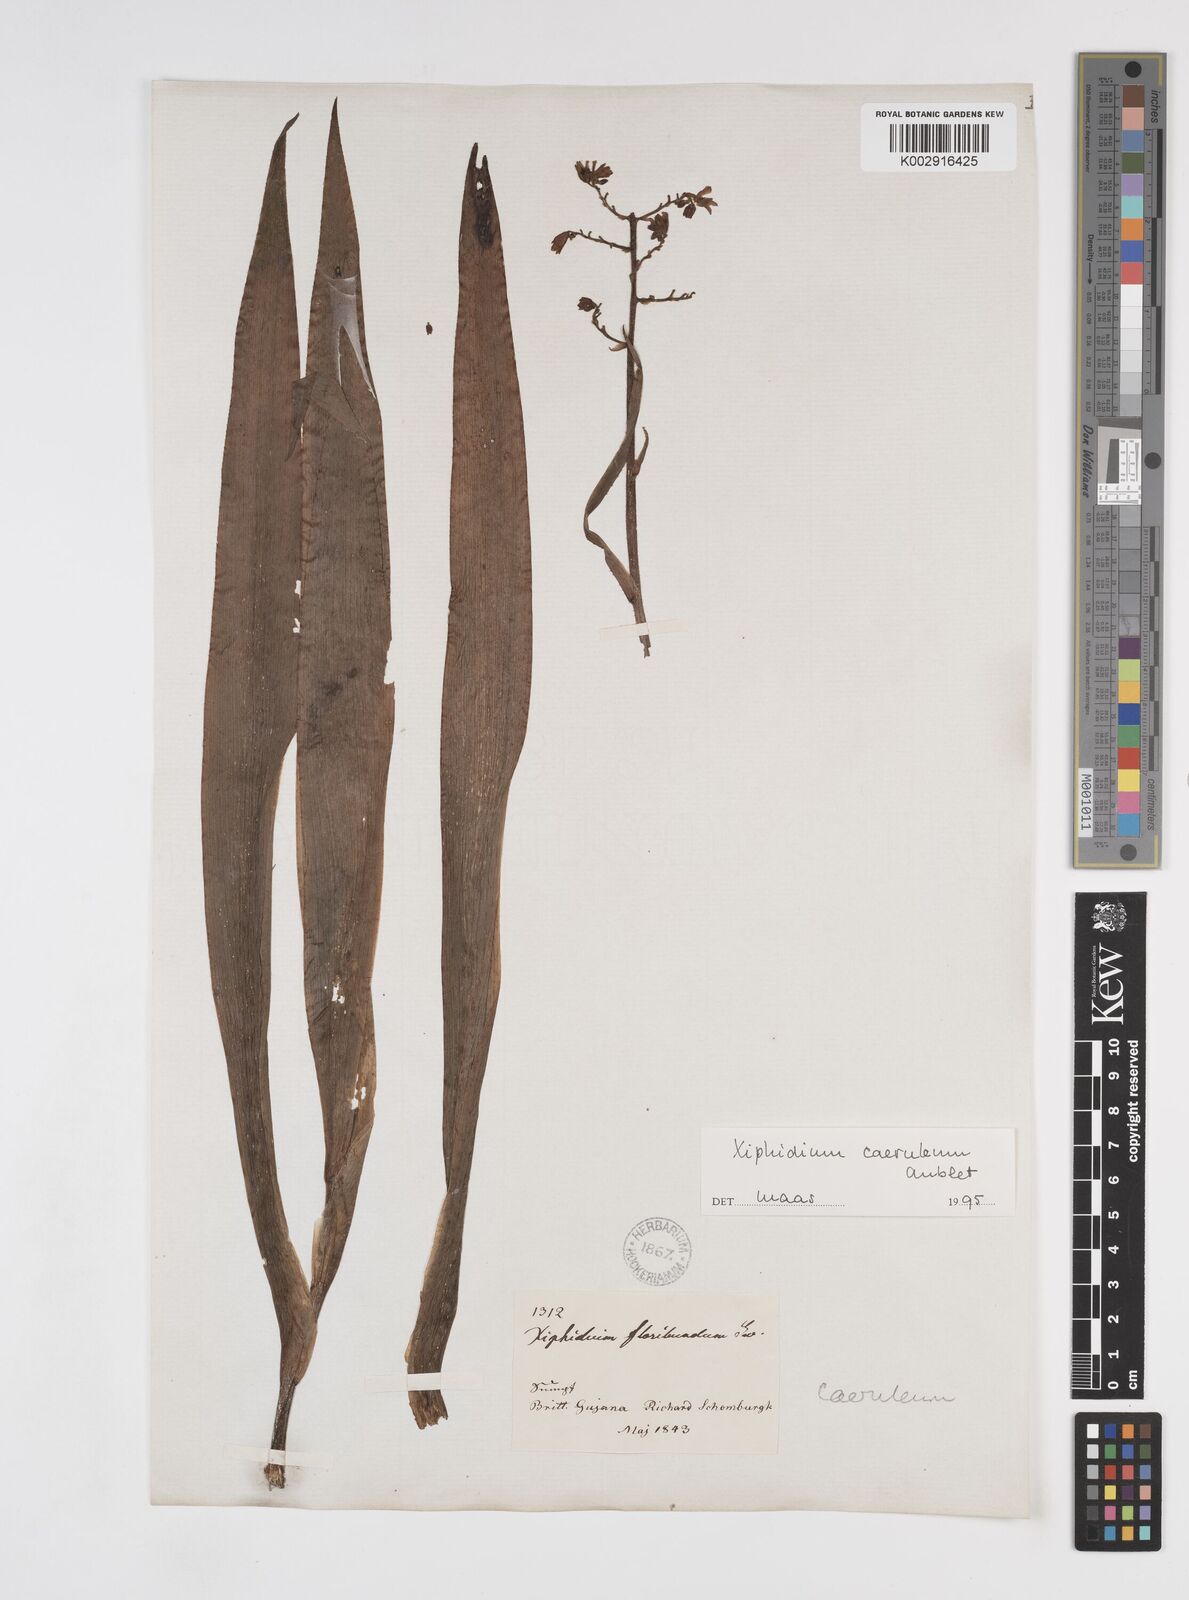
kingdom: Plantae
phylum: Tracheophyta
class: Liliopsida
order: Commelinales
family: Haemodoraceae
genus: Xiphidium
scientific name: Xiphidium caeruleum
